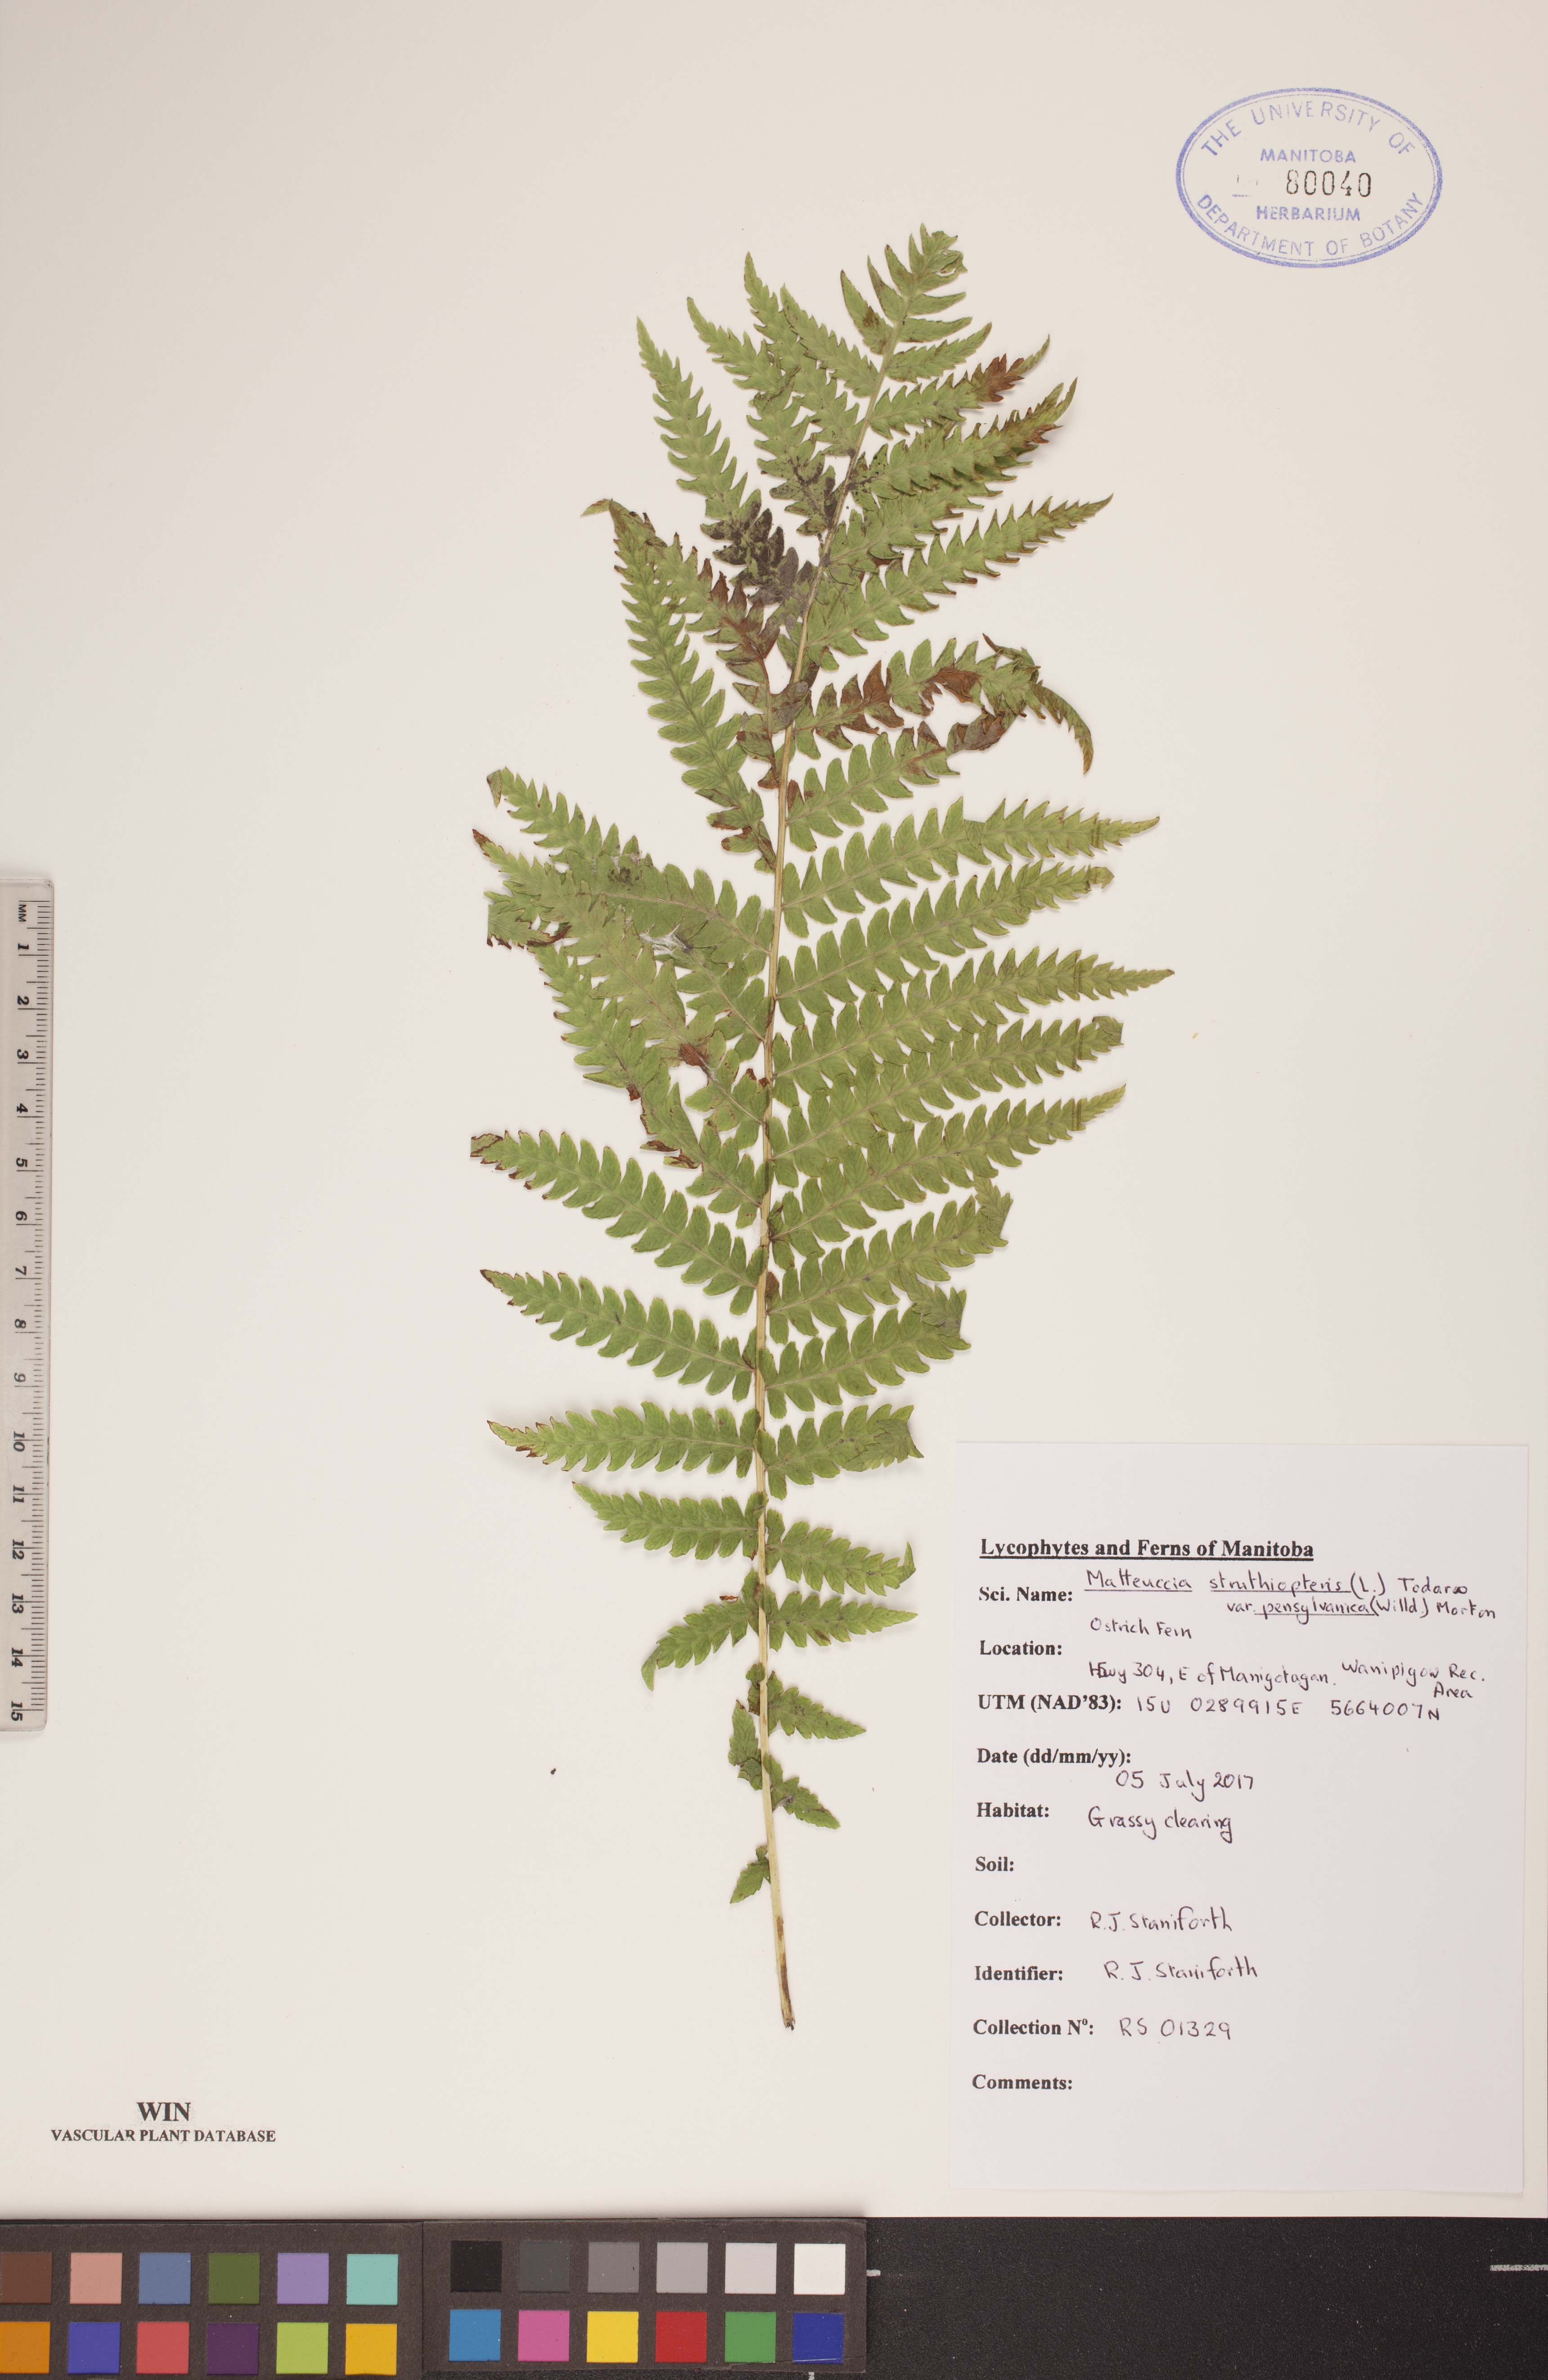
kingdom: Plantae
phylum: Tracheophyta
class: Polypodiopsida
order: Polypodiales
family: Onocleaceae
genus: Matteuccia
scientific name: Matteuccia pensylvanica
